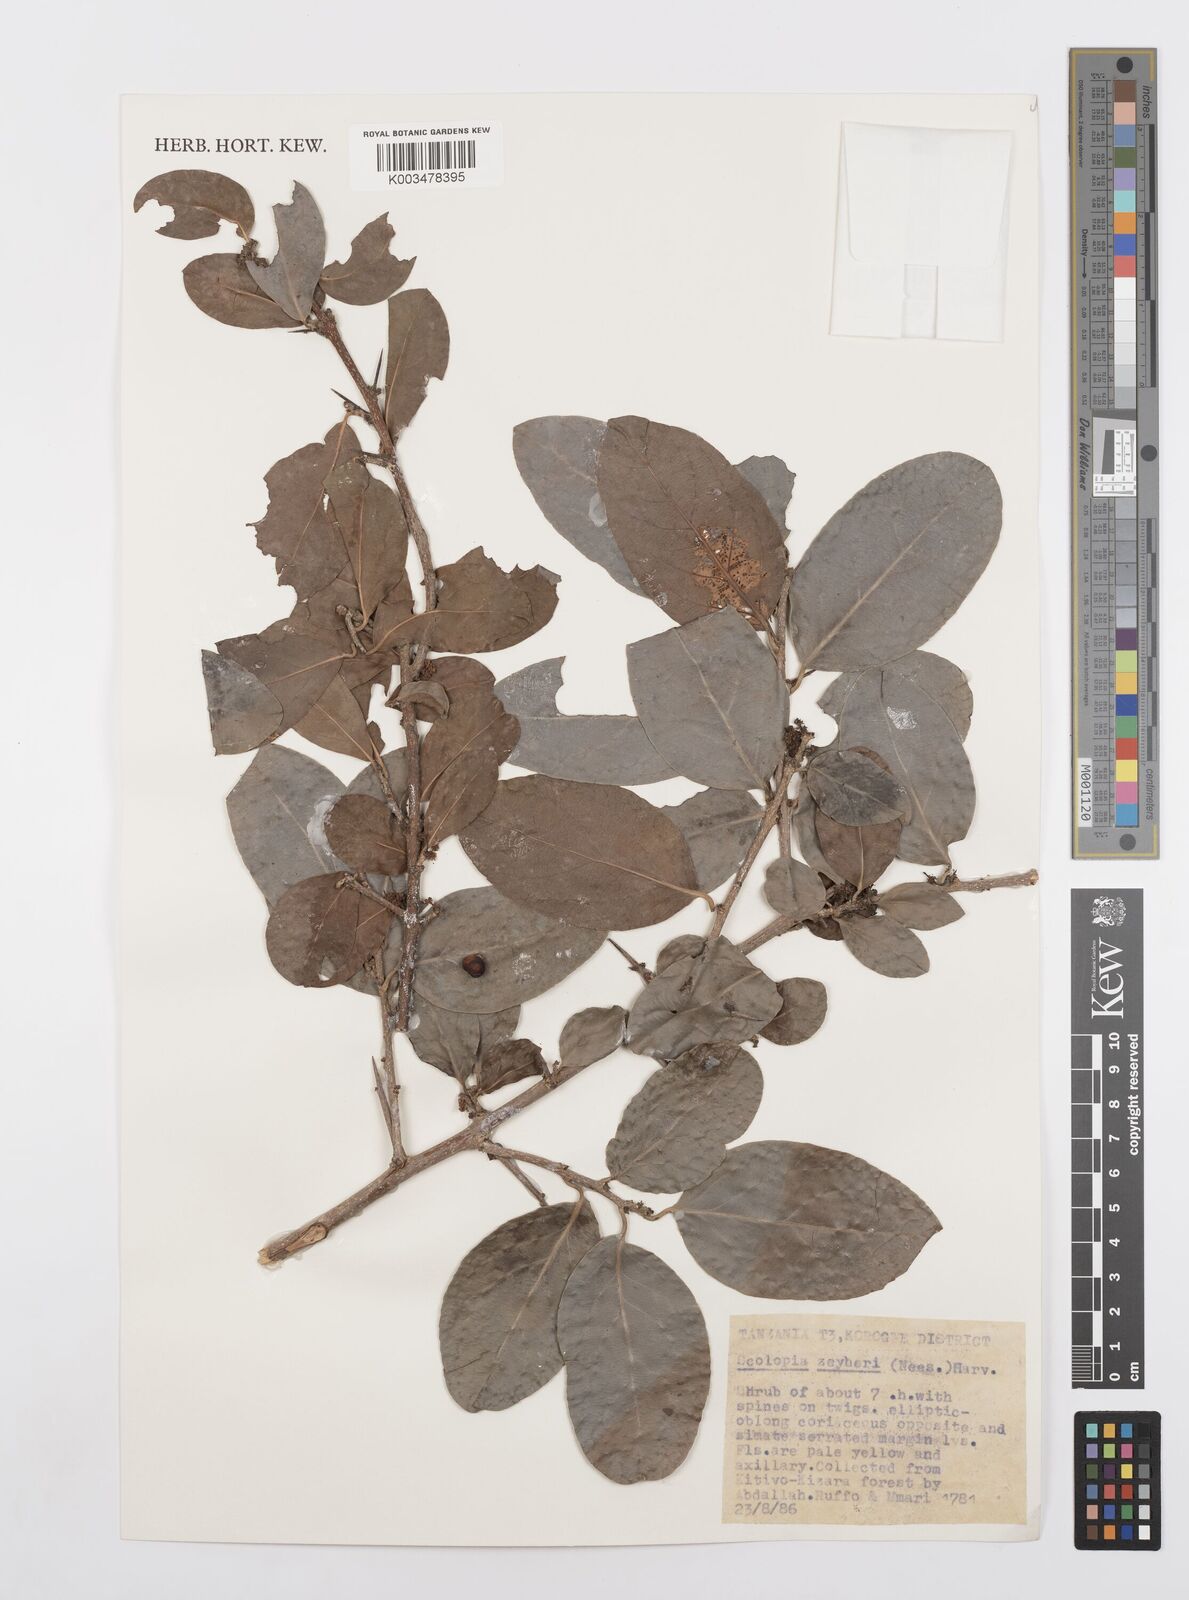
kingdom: Plantae
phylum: Tracheophyta
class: Magnoliopsida
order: Malpighiales
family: Salicaceae
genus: Scolopia
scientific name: Scolopia zeyheri
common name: Thorn pear
